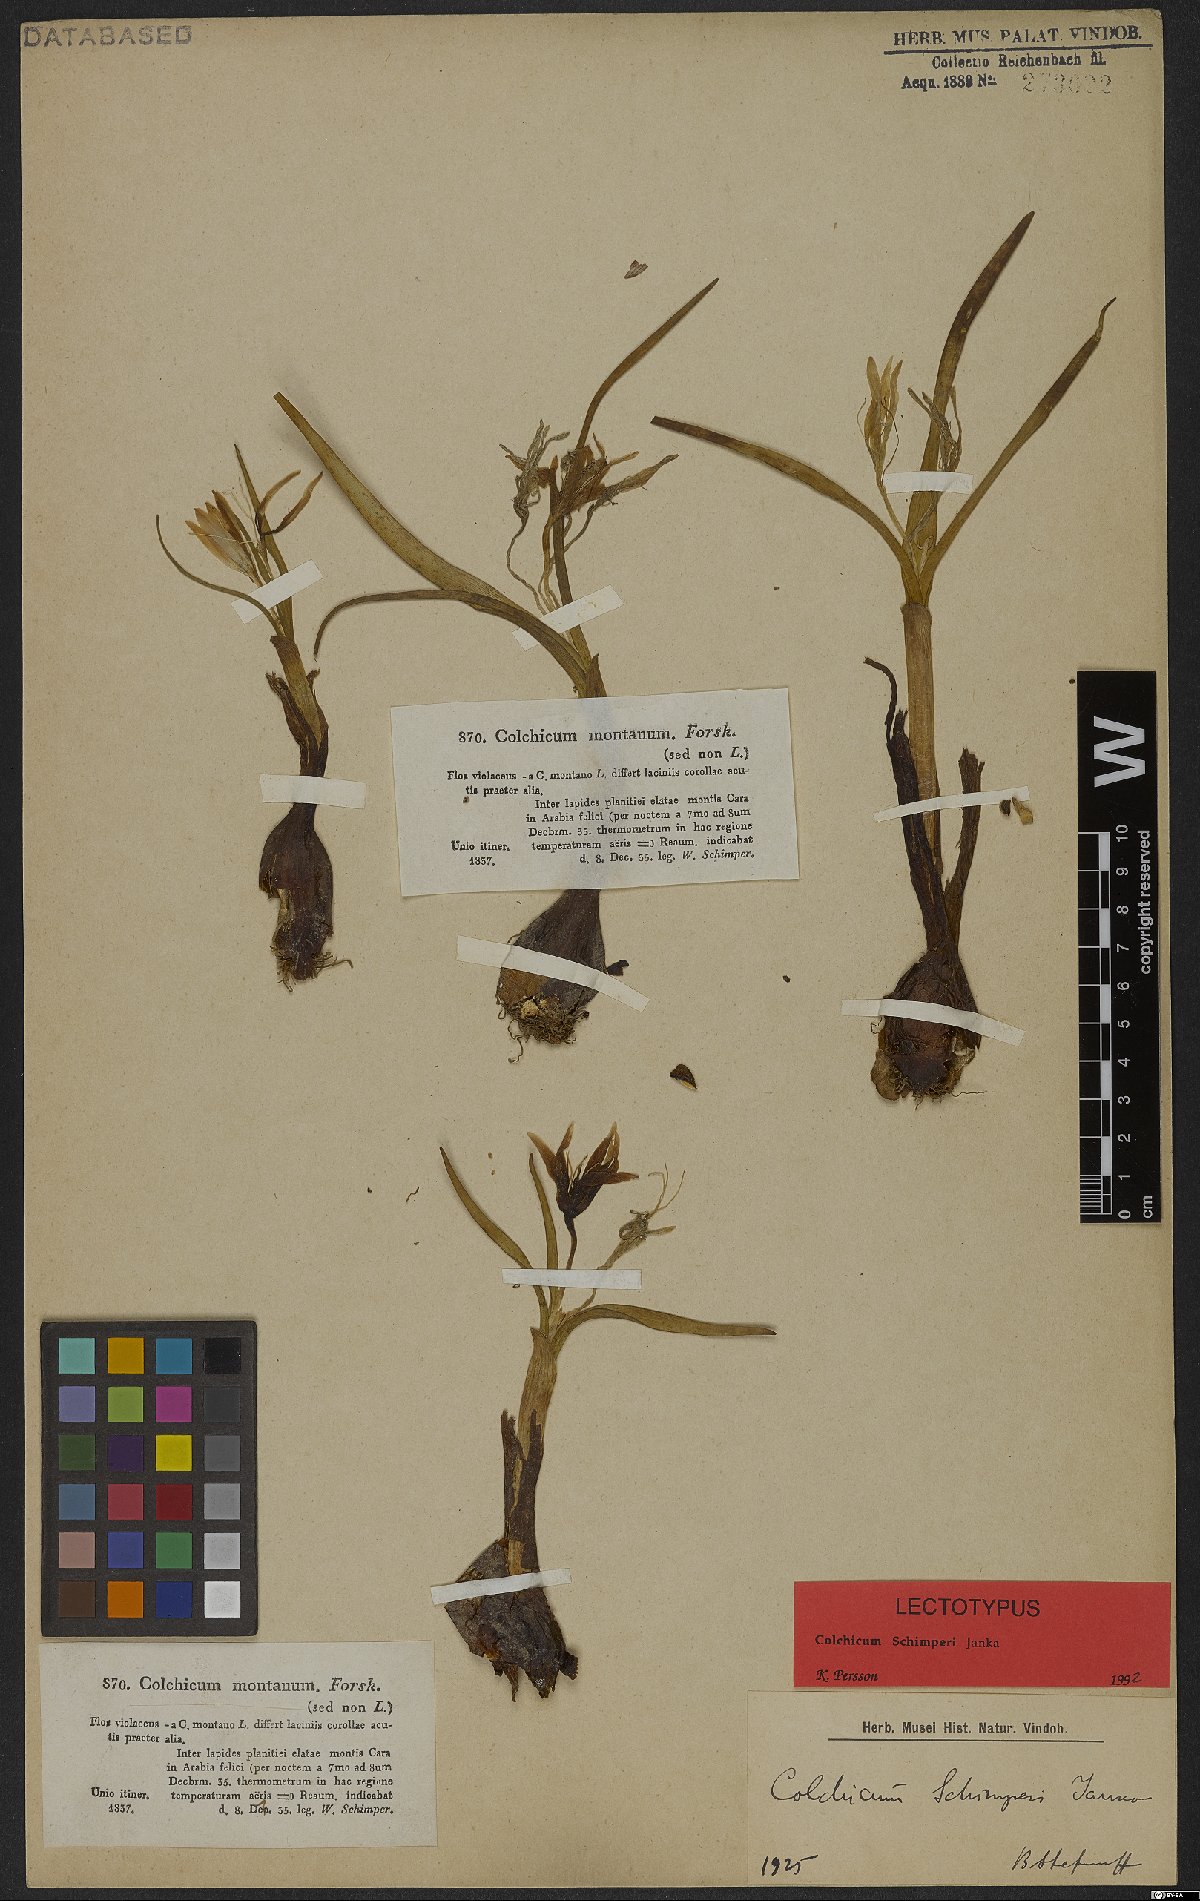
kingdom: Plantae
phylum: Tracheophyta
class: Liliopsida
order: Liliales
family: Colchicaceae
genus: Colchicum
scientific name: Colchicum schimperi
